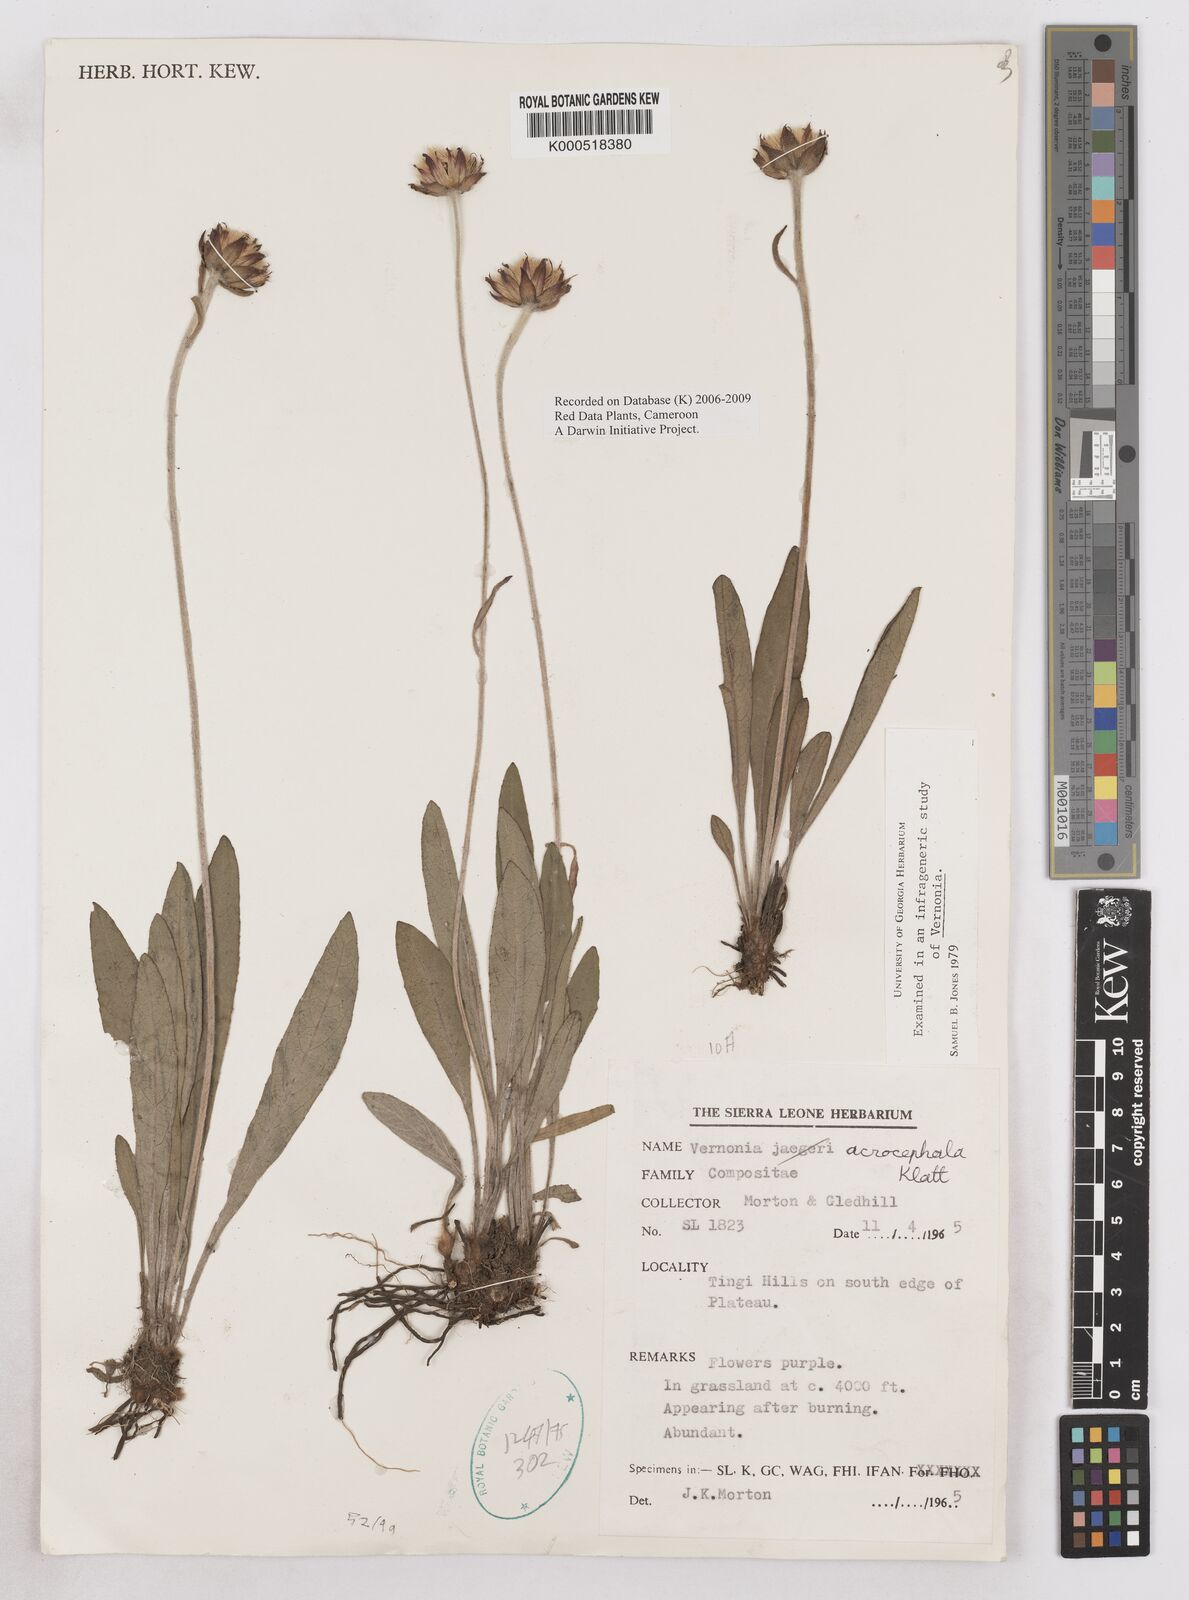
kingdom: Plantae
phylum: Tracheophyta
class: Magnoliopsida
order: Asterales
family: Asteraceae
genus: Vernonella
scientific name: Vernonella acrocephala
